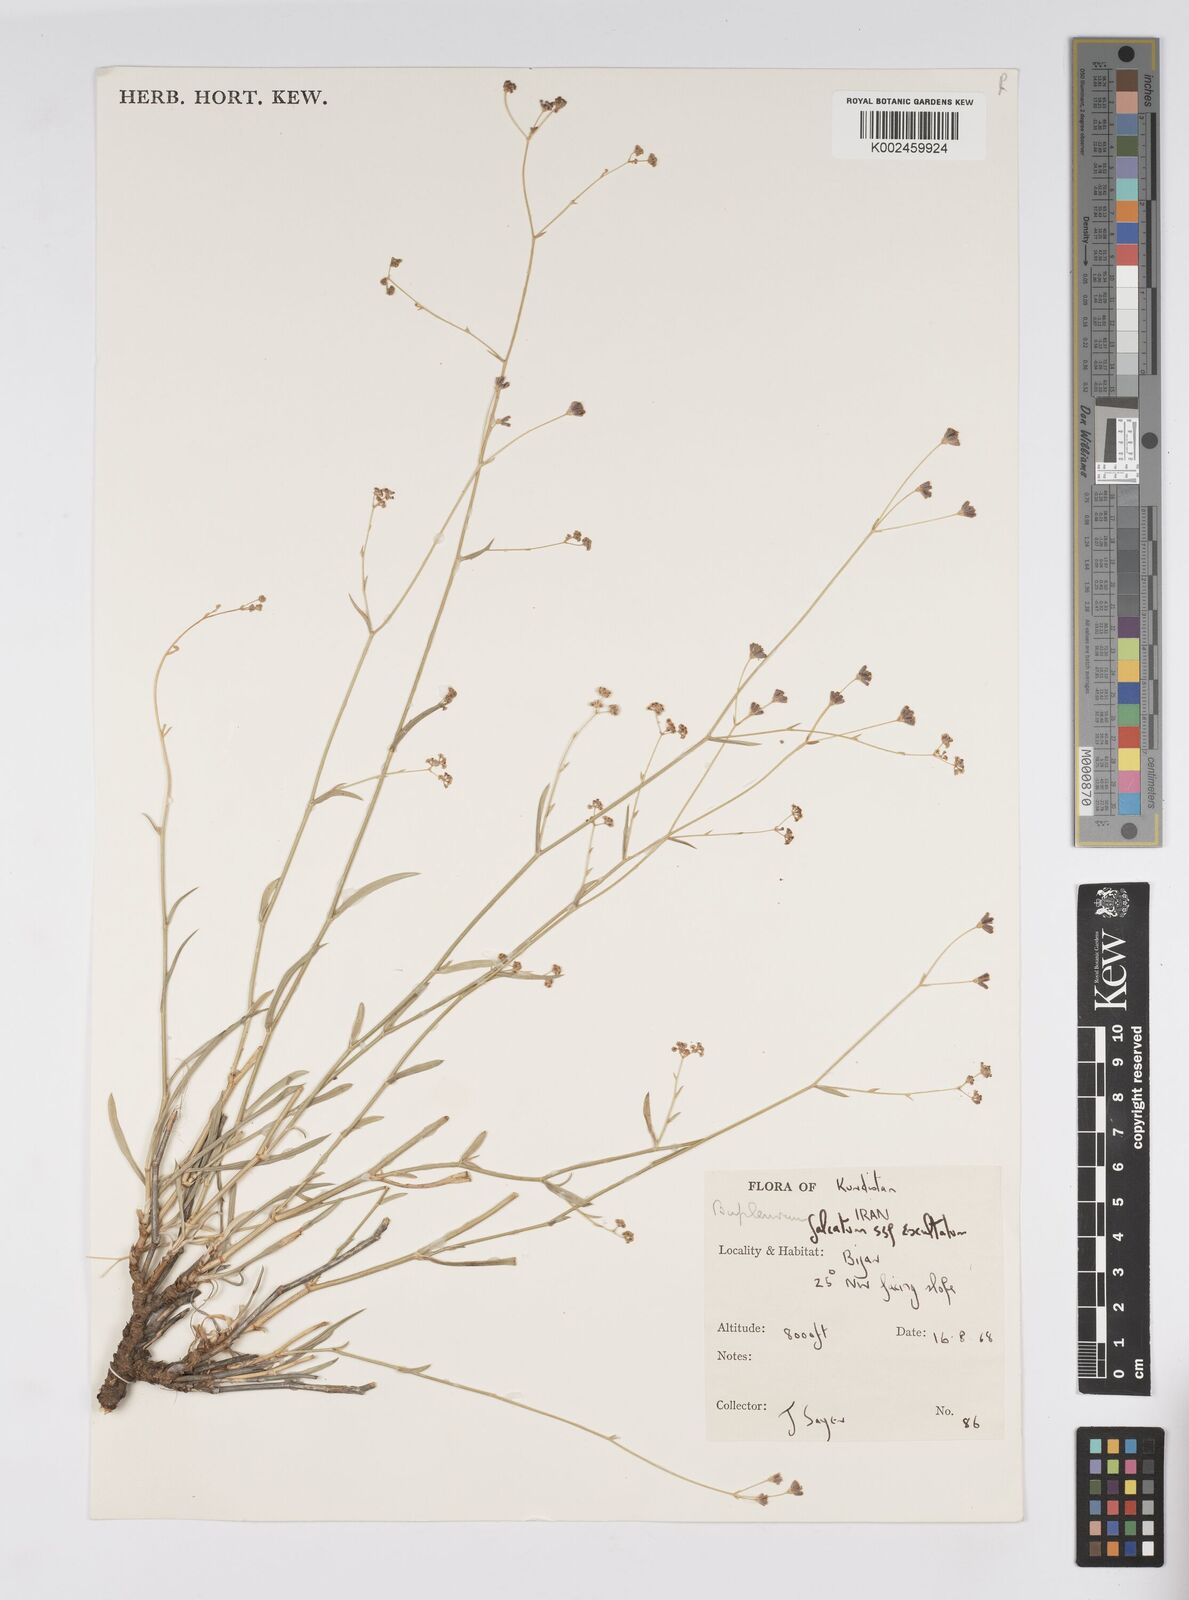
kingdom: Plantae
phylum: Tracheophyta
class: Magnoliopsida
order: Apiales
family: Apiaceae
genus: Bupleurum
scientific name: Bupleurum falcatum
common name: Sickle-leaved hare's-ear
